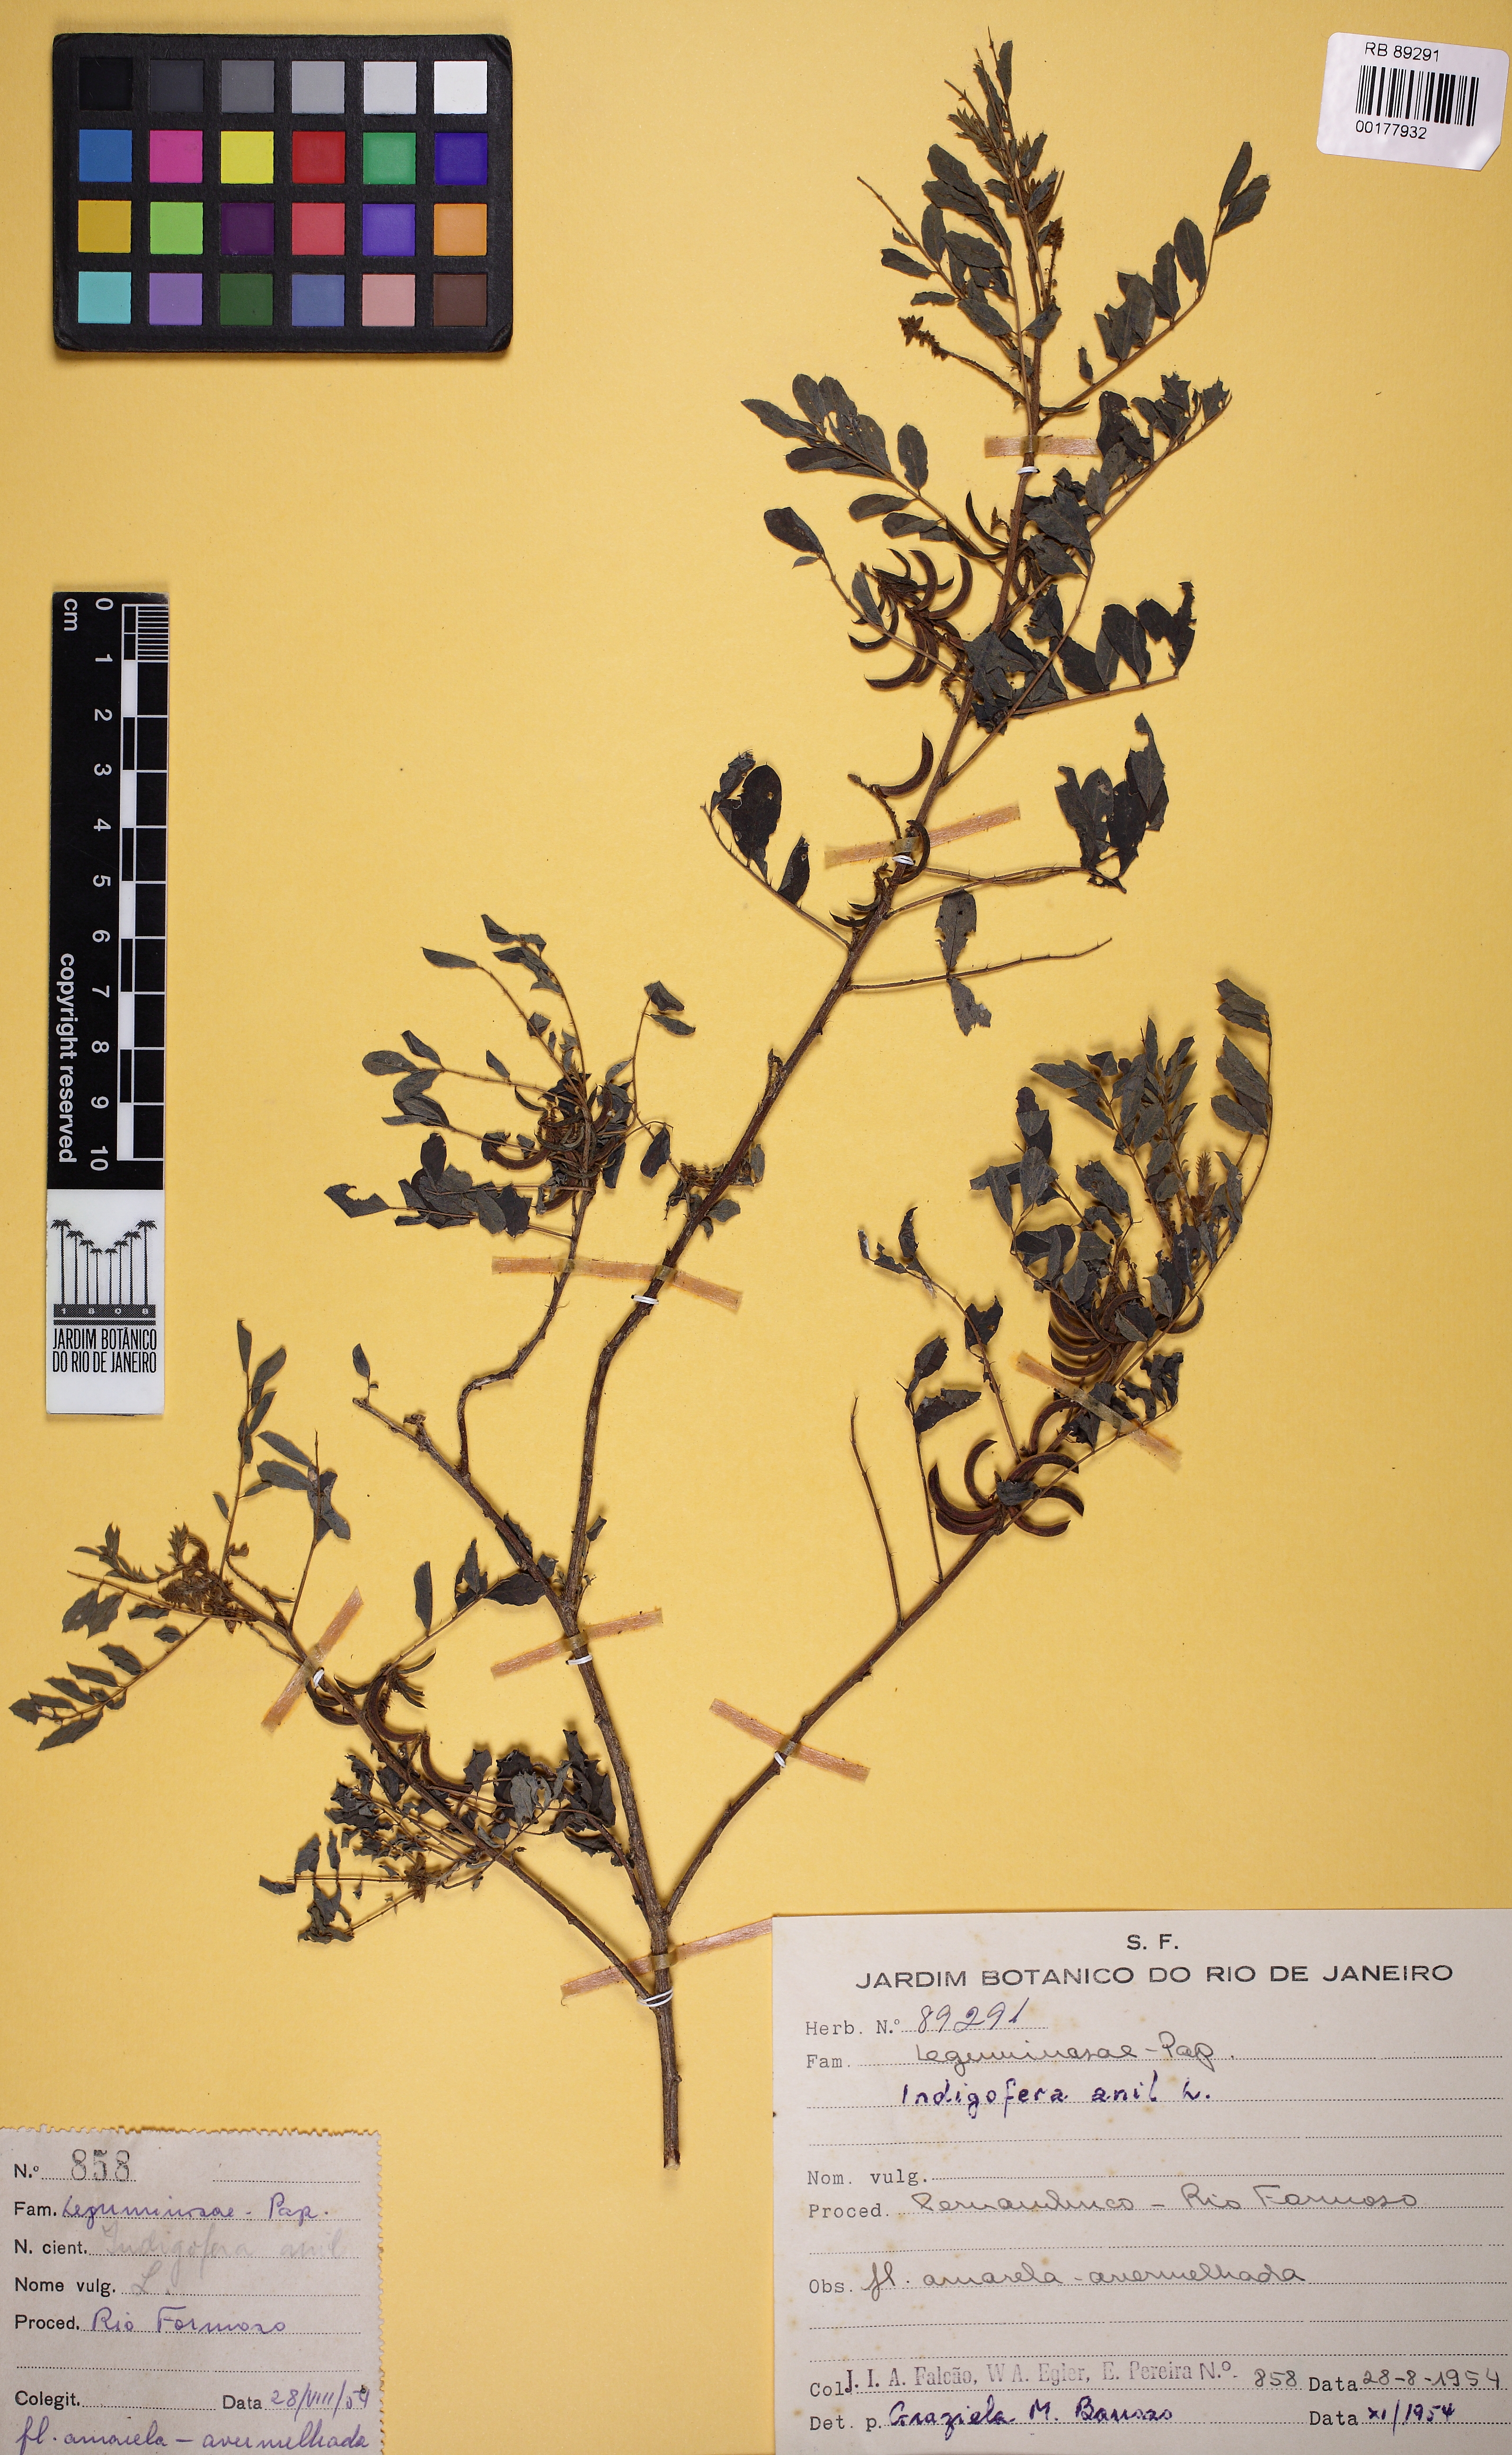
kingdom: Plantae
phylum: Tracheophyta
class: Magnoliopsida
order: Fabales
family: Fabaceae
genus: Indigofera
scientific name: Indigofera suffruticosa
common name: Anil de pasto
